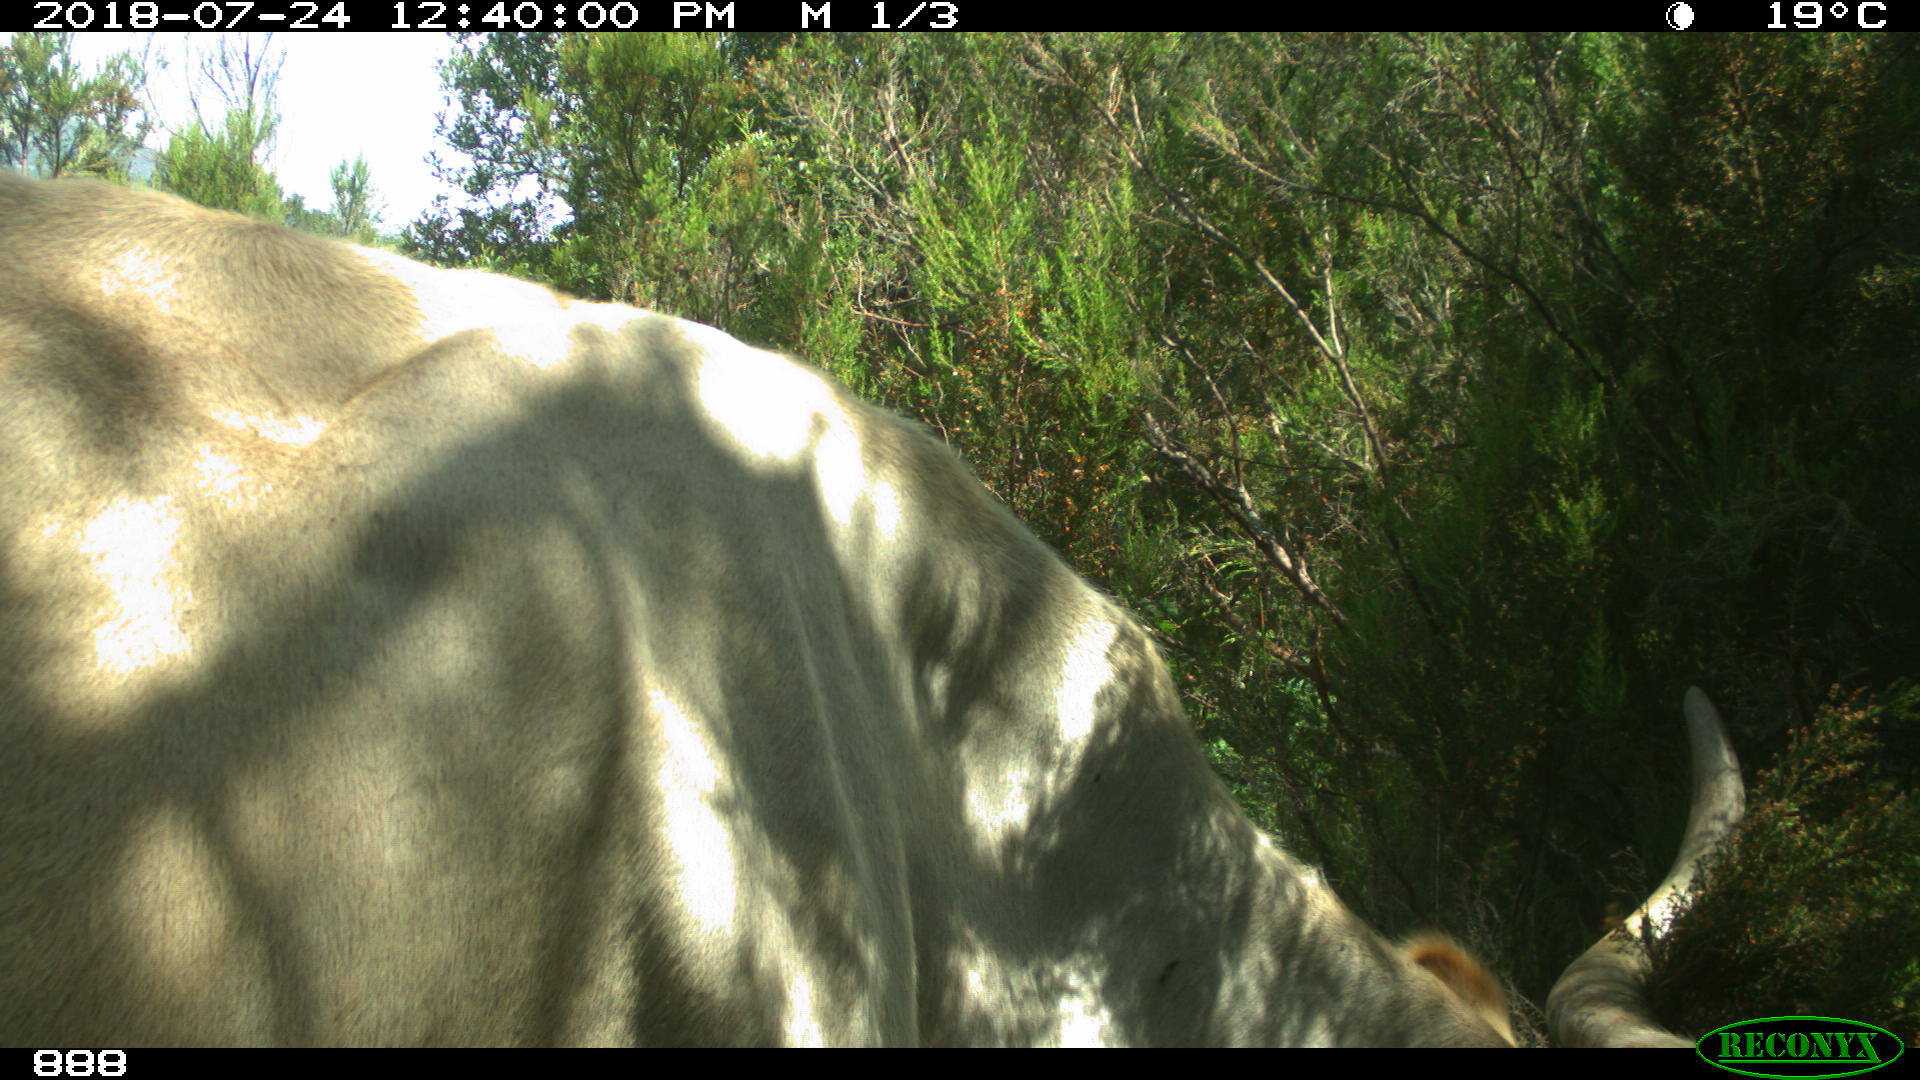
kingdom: Animalia
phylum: Chordata
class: Mammalia
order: Artiodactyla
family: Bovidae
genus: Bos
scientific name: Bos taurus
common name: Domesticated cattle
